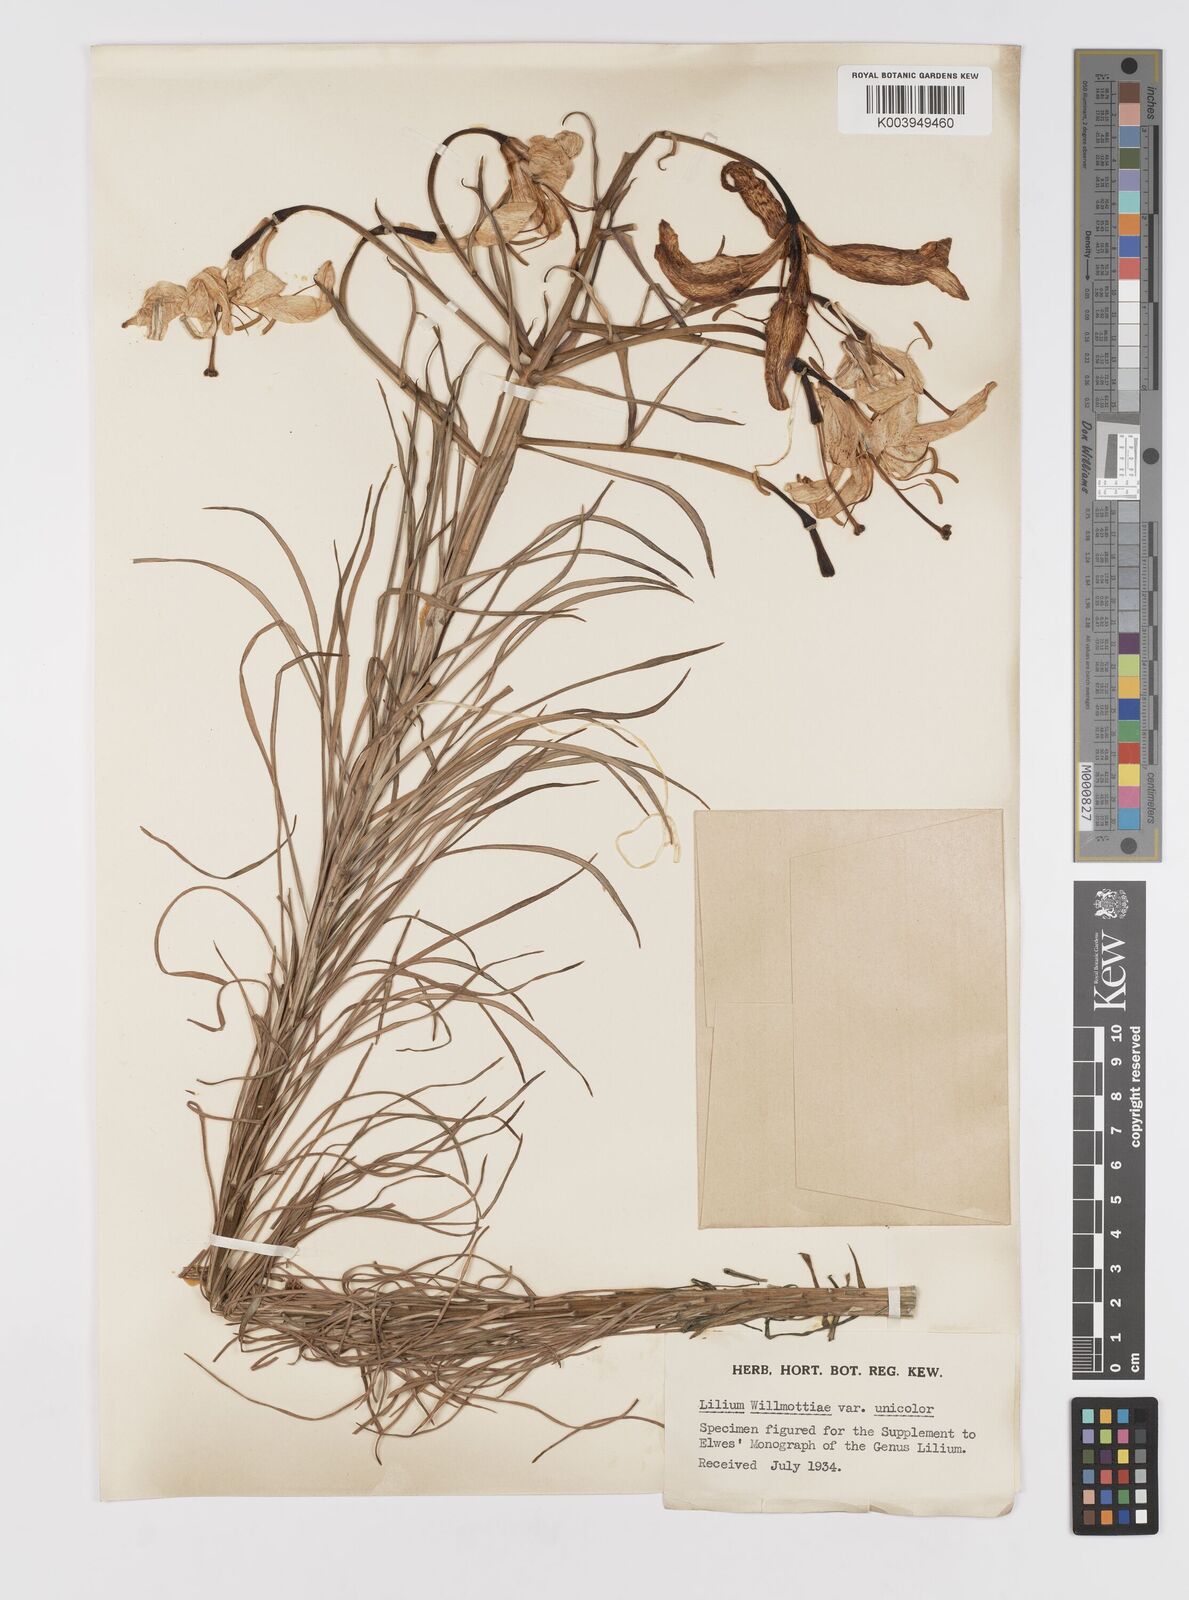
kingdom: Plantae
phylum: Tracheophyta
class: Liliopsida
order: Liliales
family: Liliaceae
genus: Lilium
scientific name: Lilium davidii
